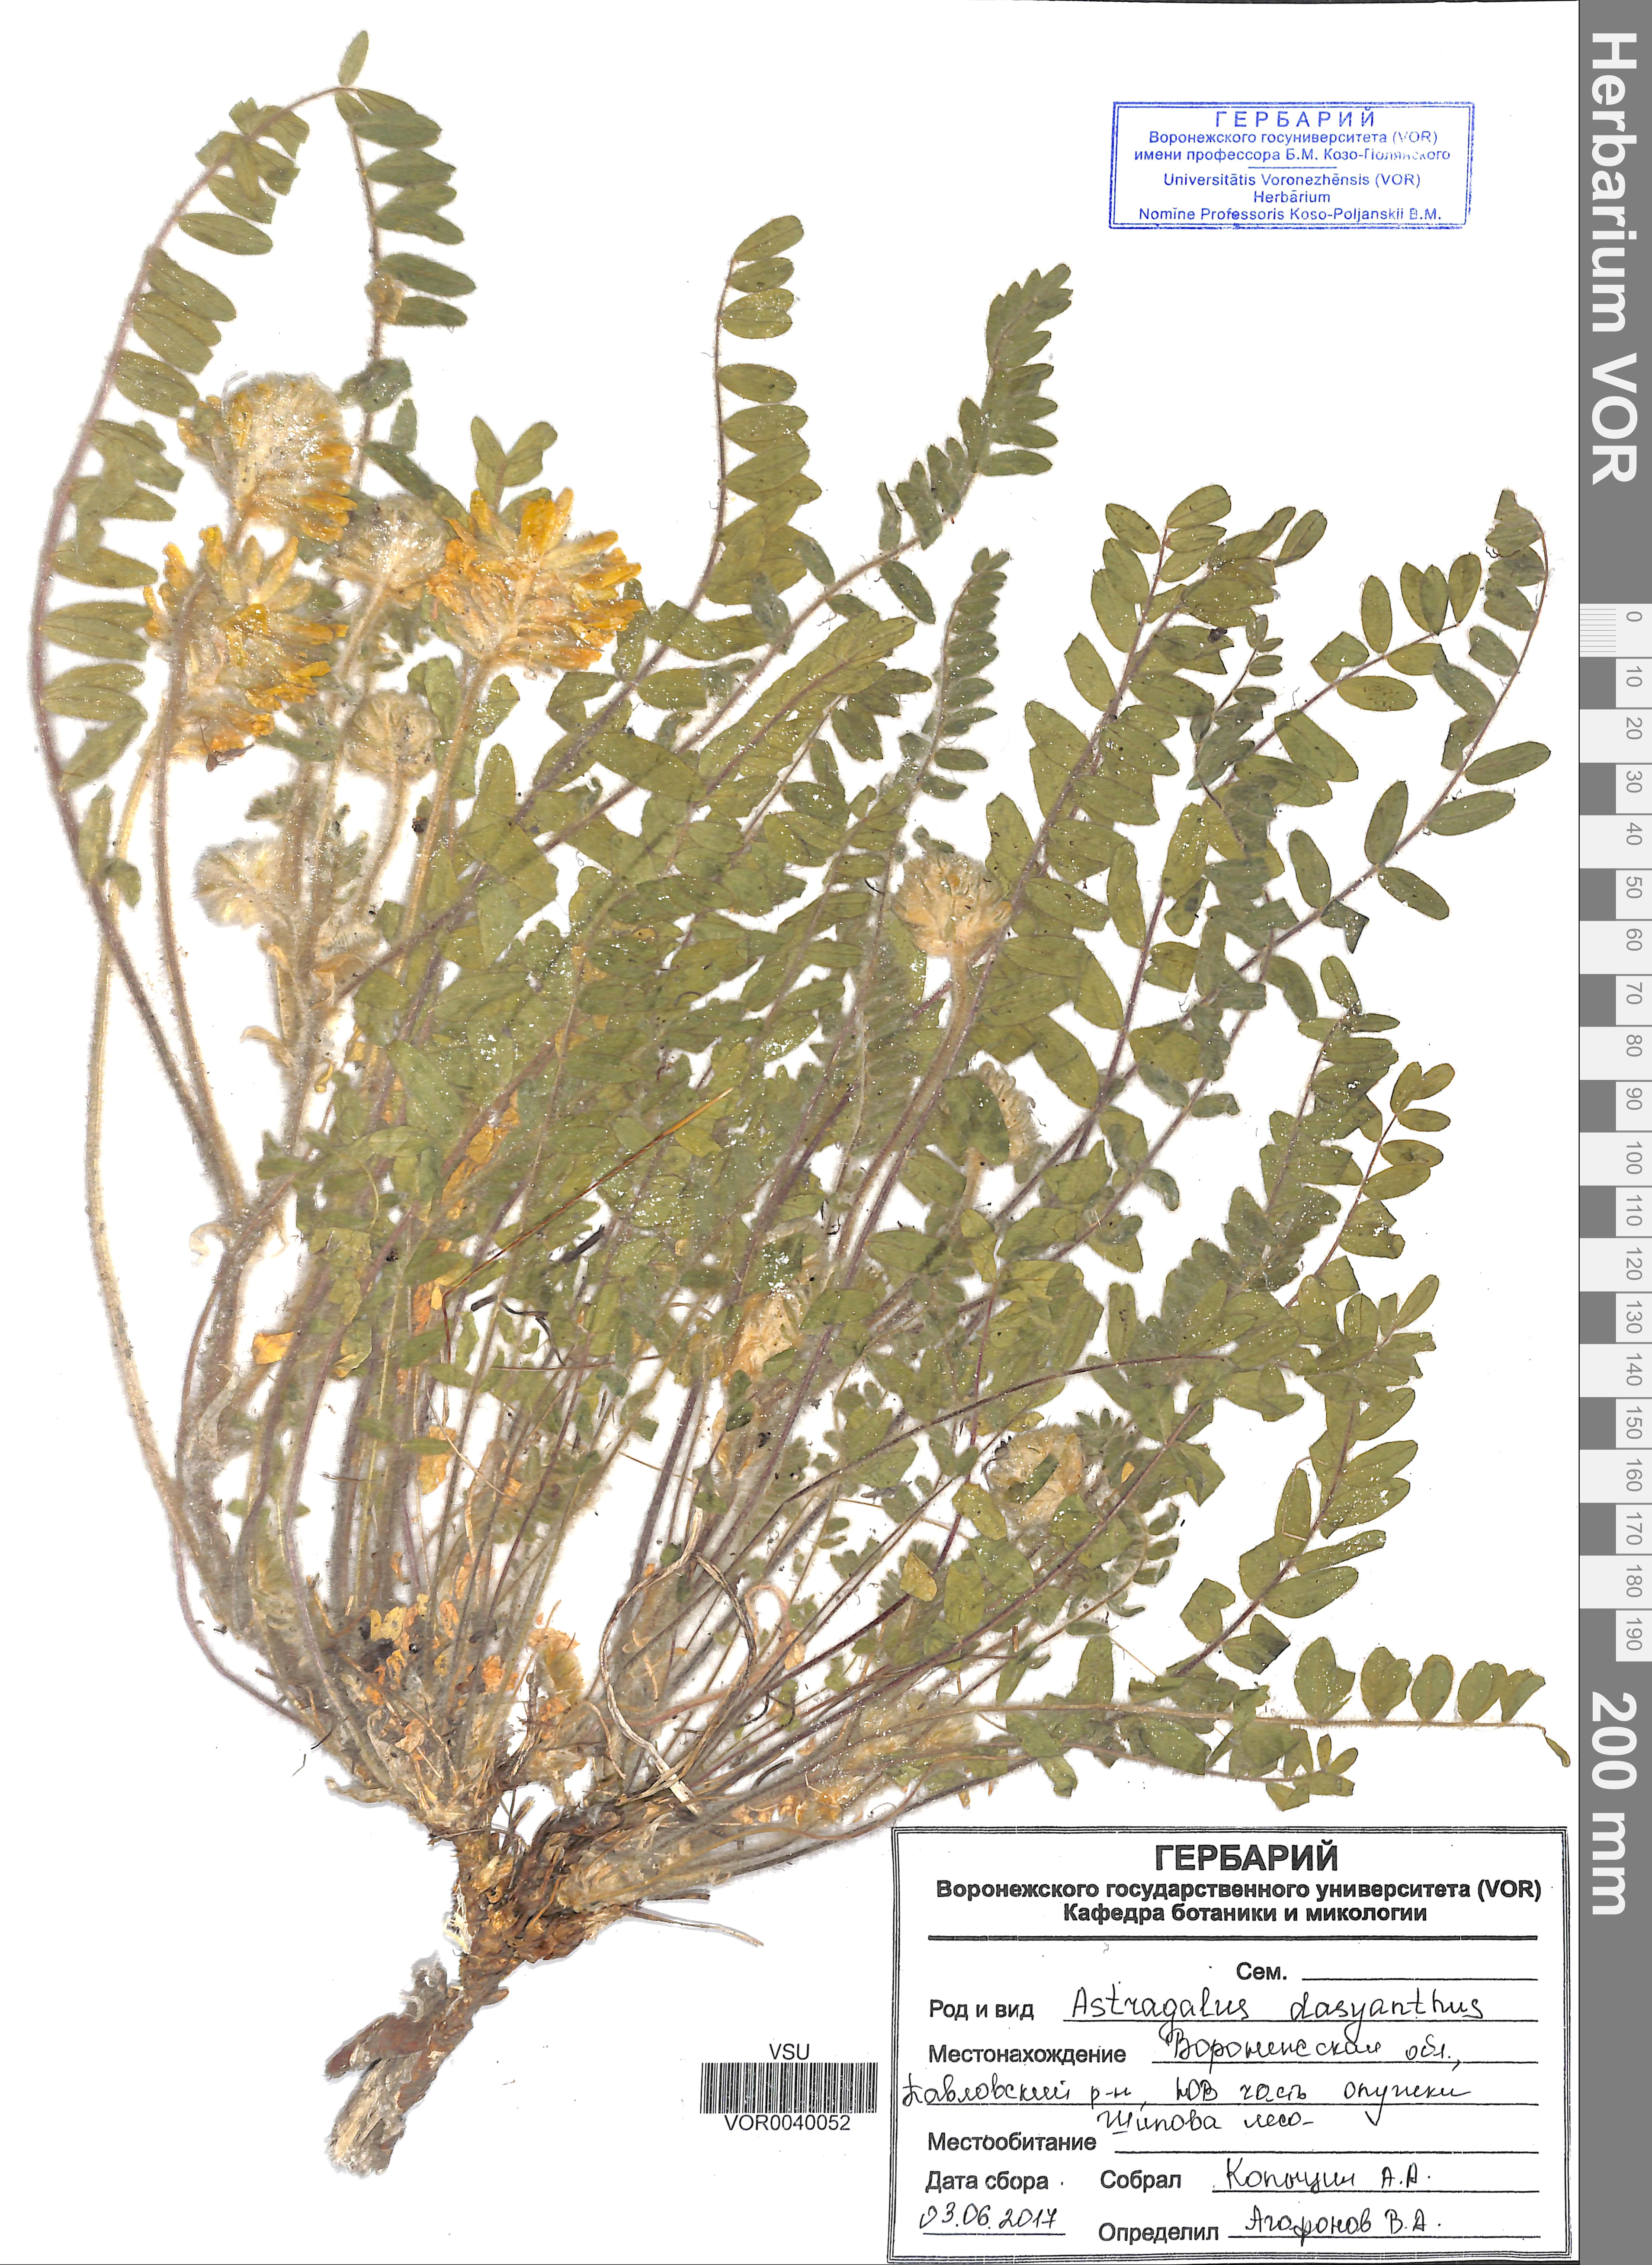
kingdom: Plantae
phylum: Tracheophyta
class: Magnoliopsida
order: Fabales
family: Fabaceae
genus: Astragalus
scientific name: Astragalus dasyanthus
